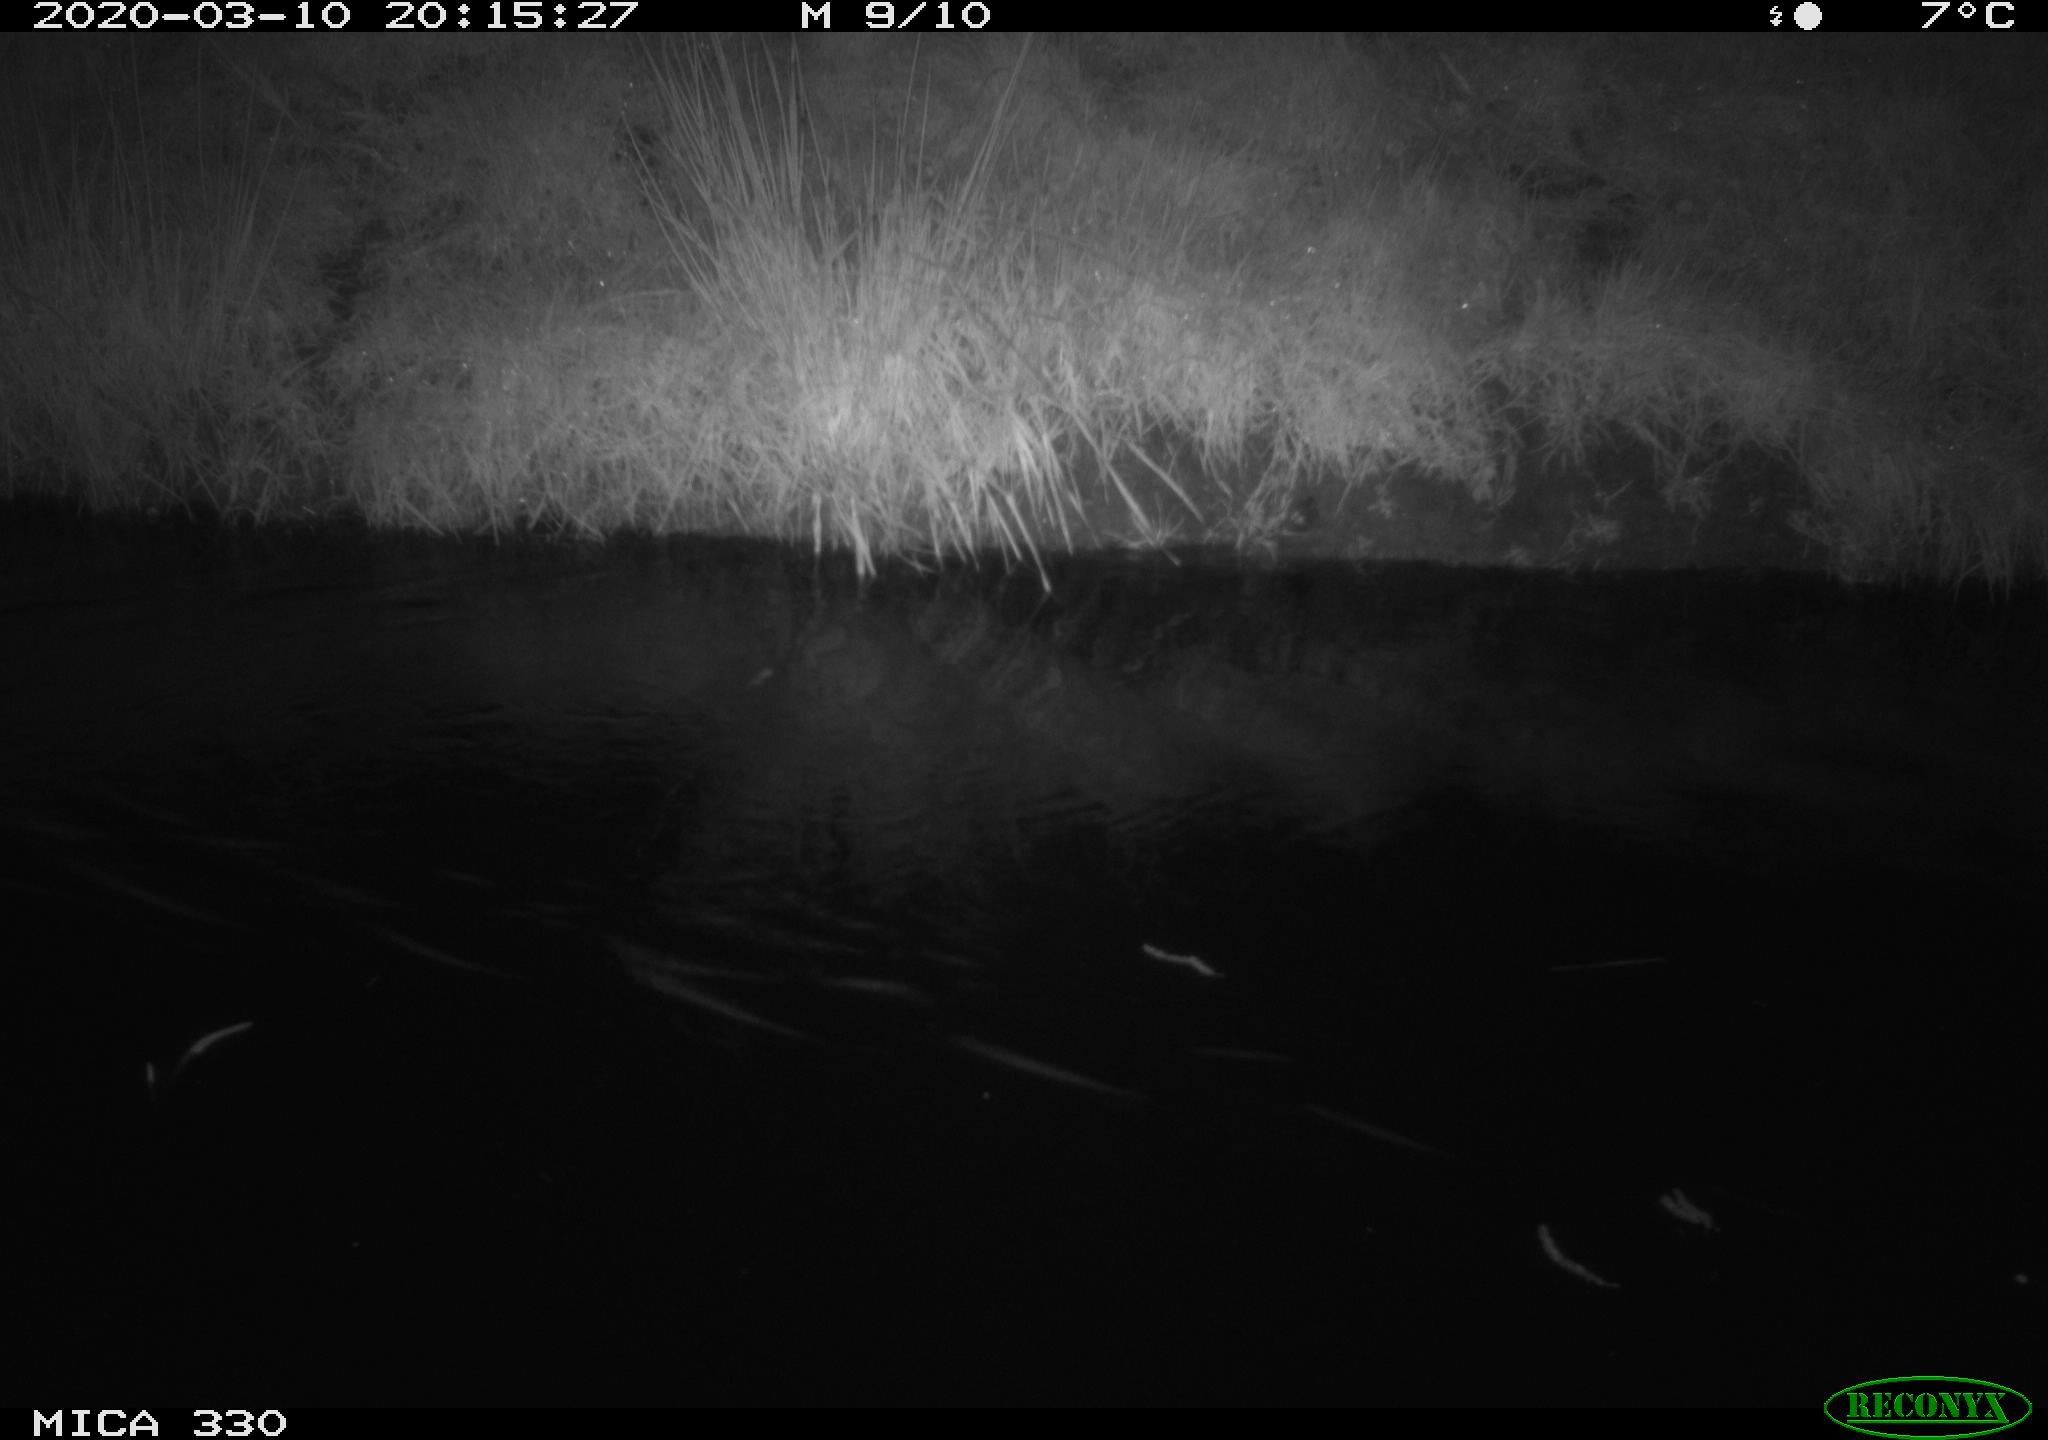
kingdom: Animalia
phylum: Chordata
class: Aves
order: Anseriformes
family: Anatidae
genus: Anas
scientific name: Anas platyrhynchos
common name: Mallard
